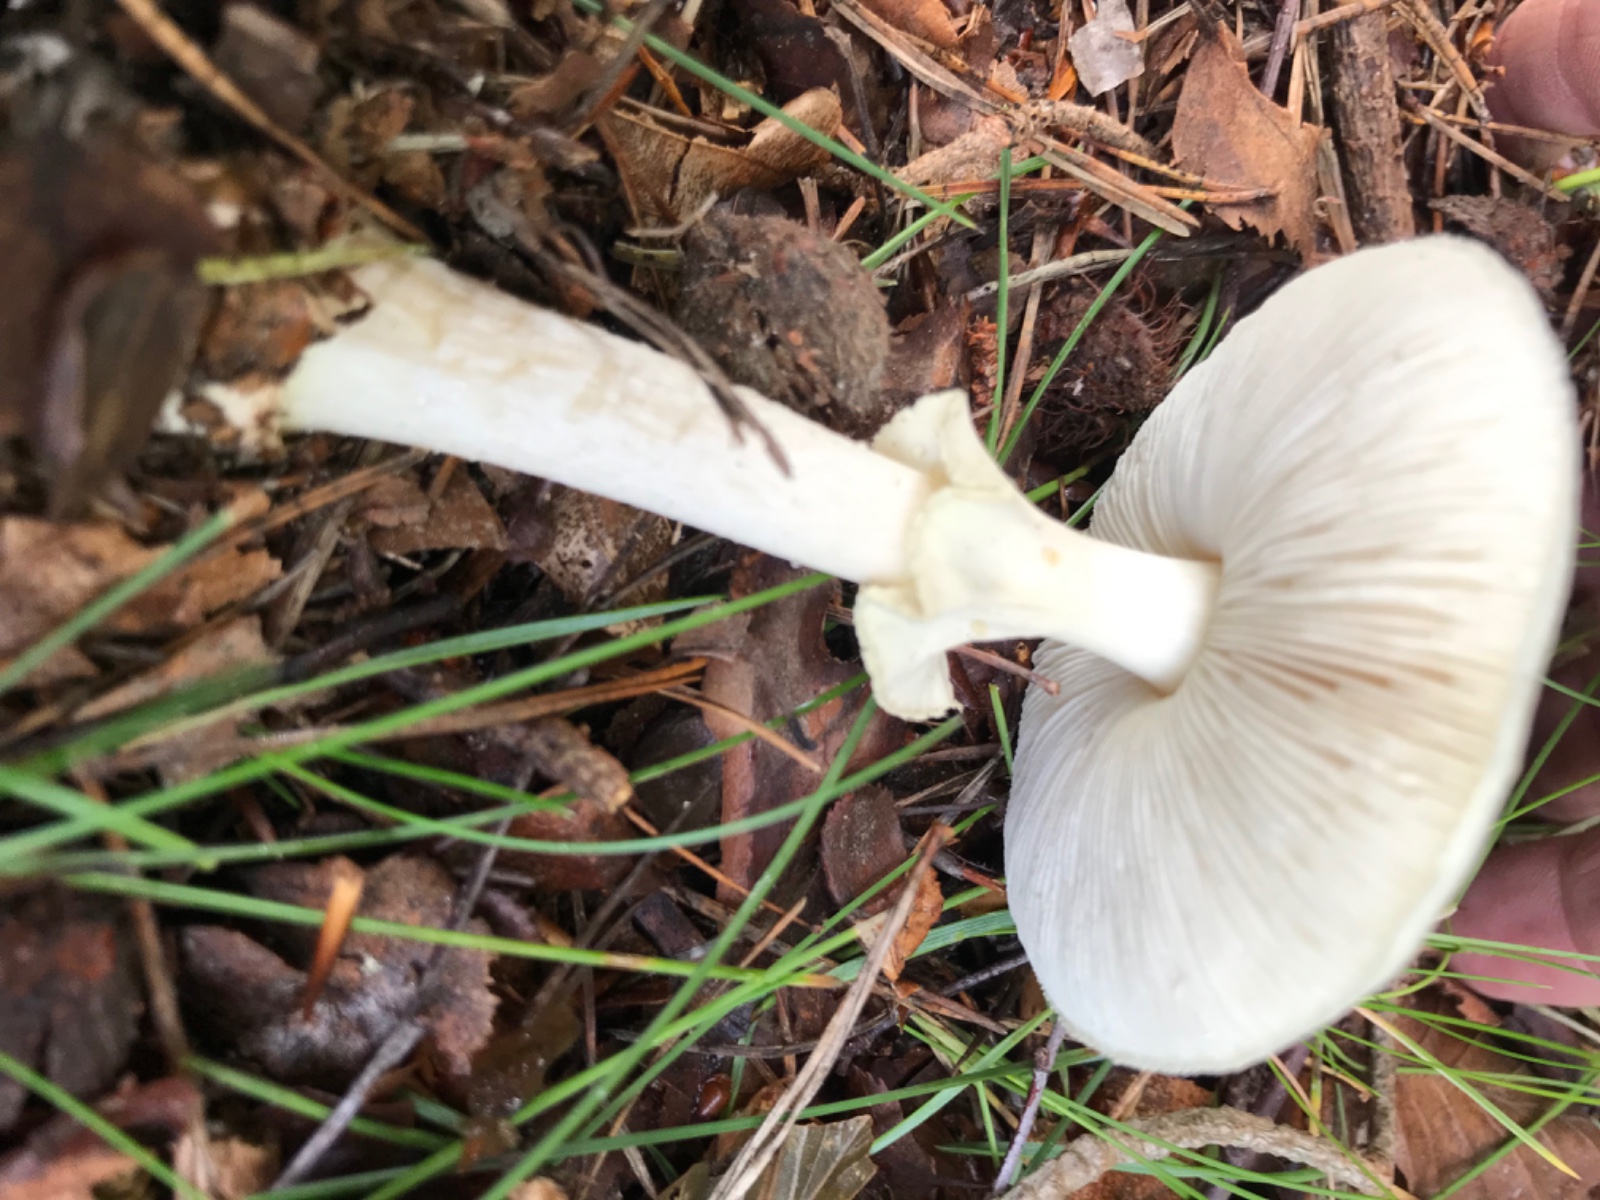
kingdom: Fungi
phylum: Basidiomycota
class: Agaricomycetes
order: Agaricales
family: Amanitaceae
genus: Amanita
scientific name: Amanita citrina
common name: kugleknoldet fluesvamp
